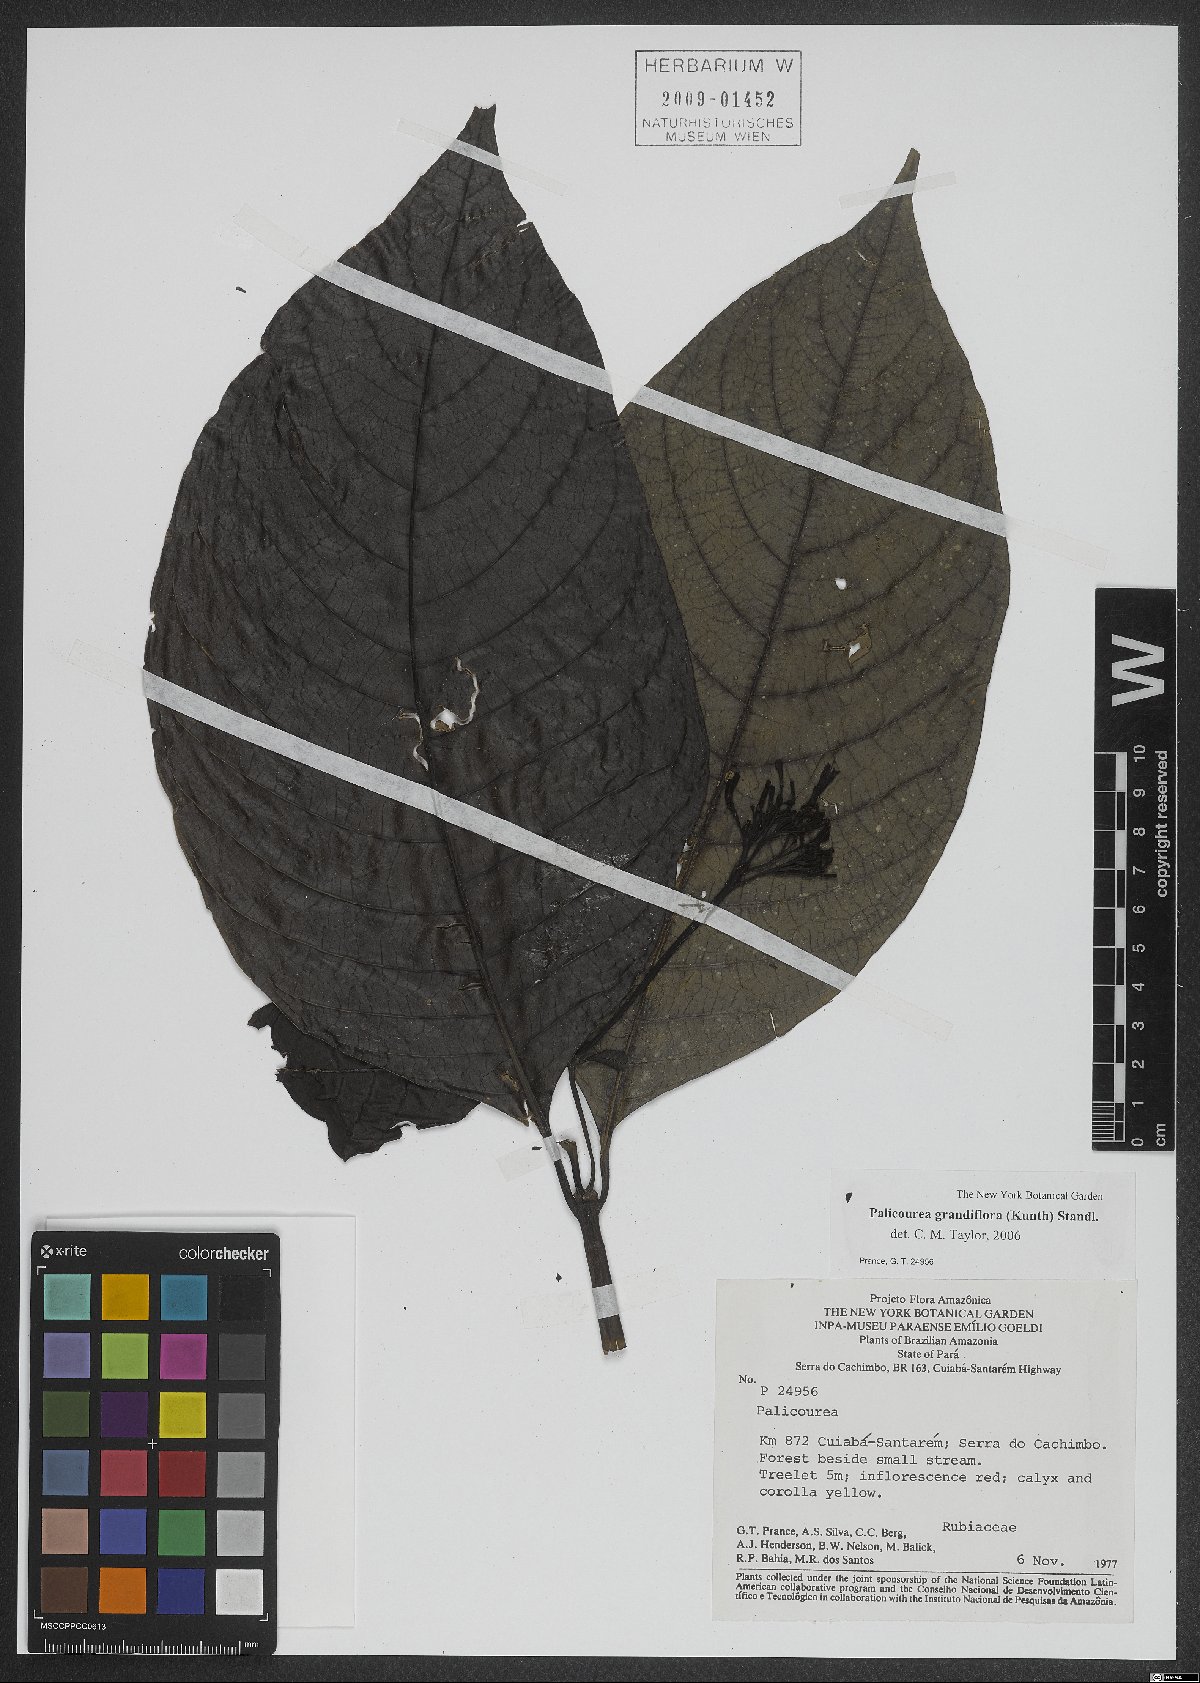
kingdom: Plantae
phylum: Tracheophyta
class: Magnoliopsida
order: Gentianales
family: Rubiaceae
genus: Palicourea
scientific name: Palicourea grandifolia
